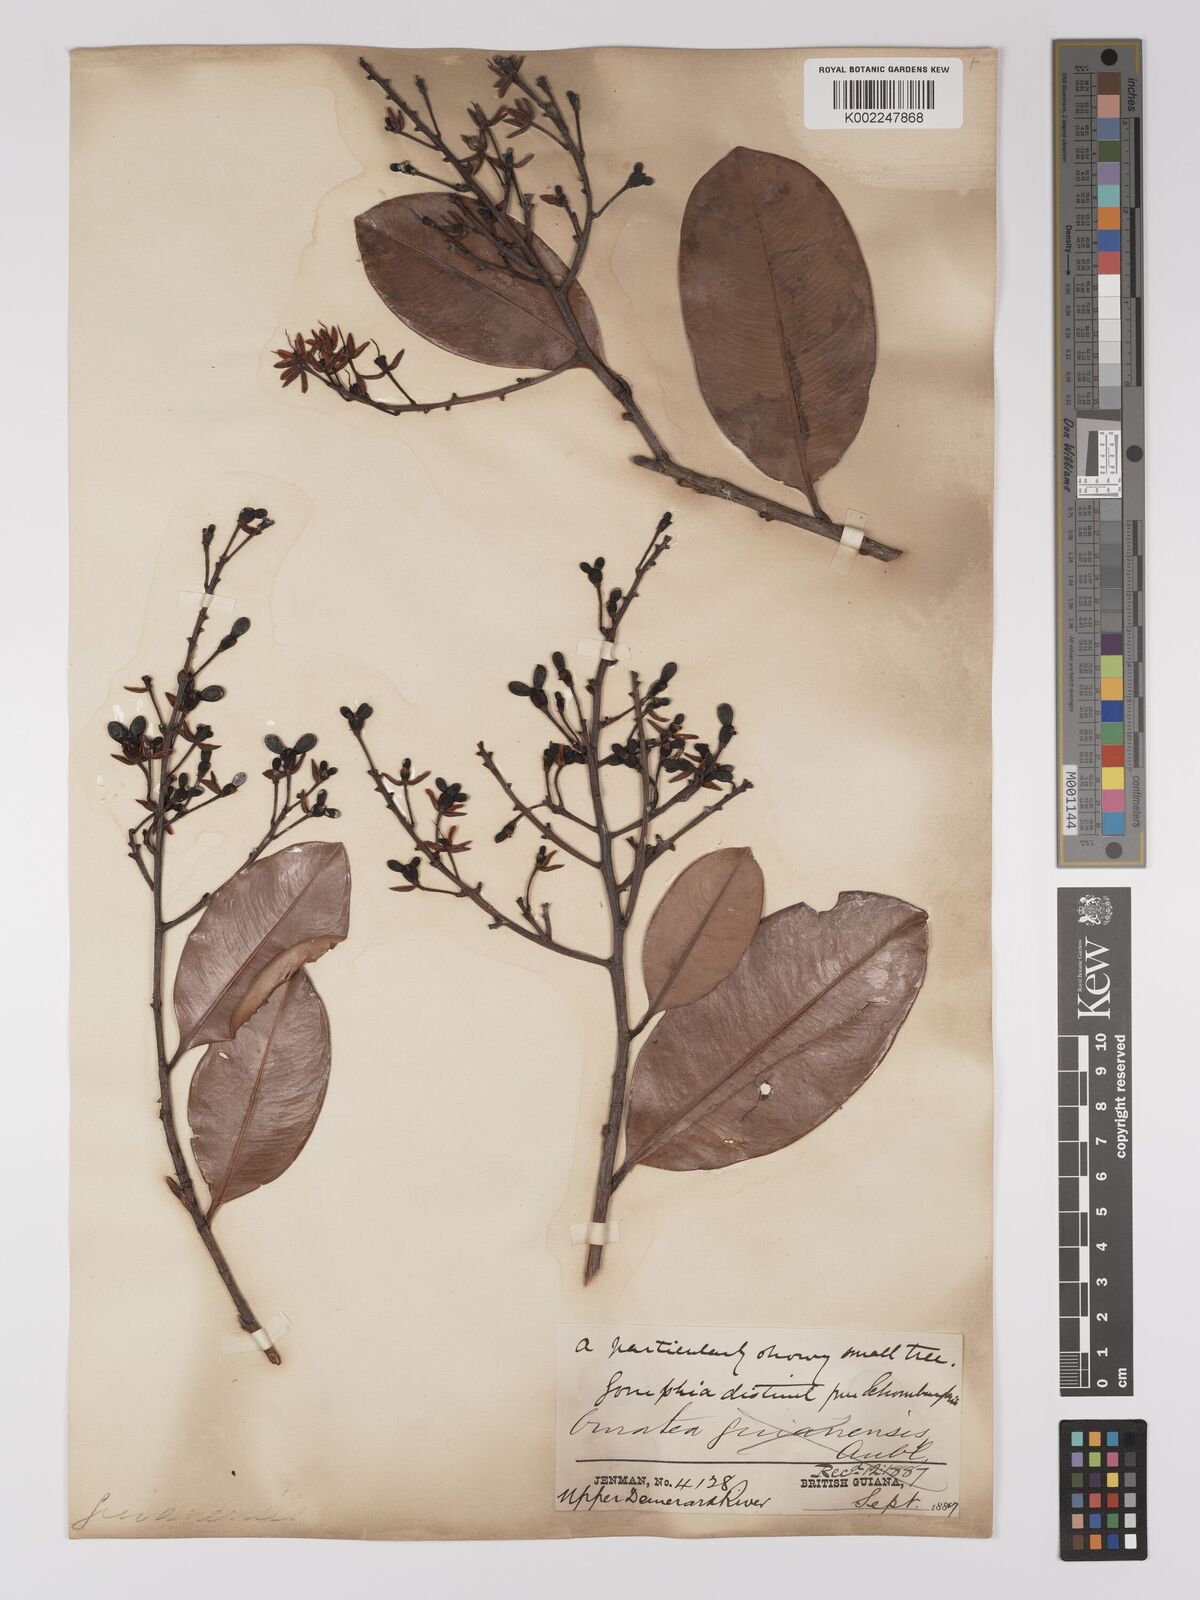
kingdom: Plantae
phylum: Tracheophyta
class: Magnoliopsida
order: Malpighiales
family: Ochnaceae
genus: Ouratea
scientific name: Ouratea
